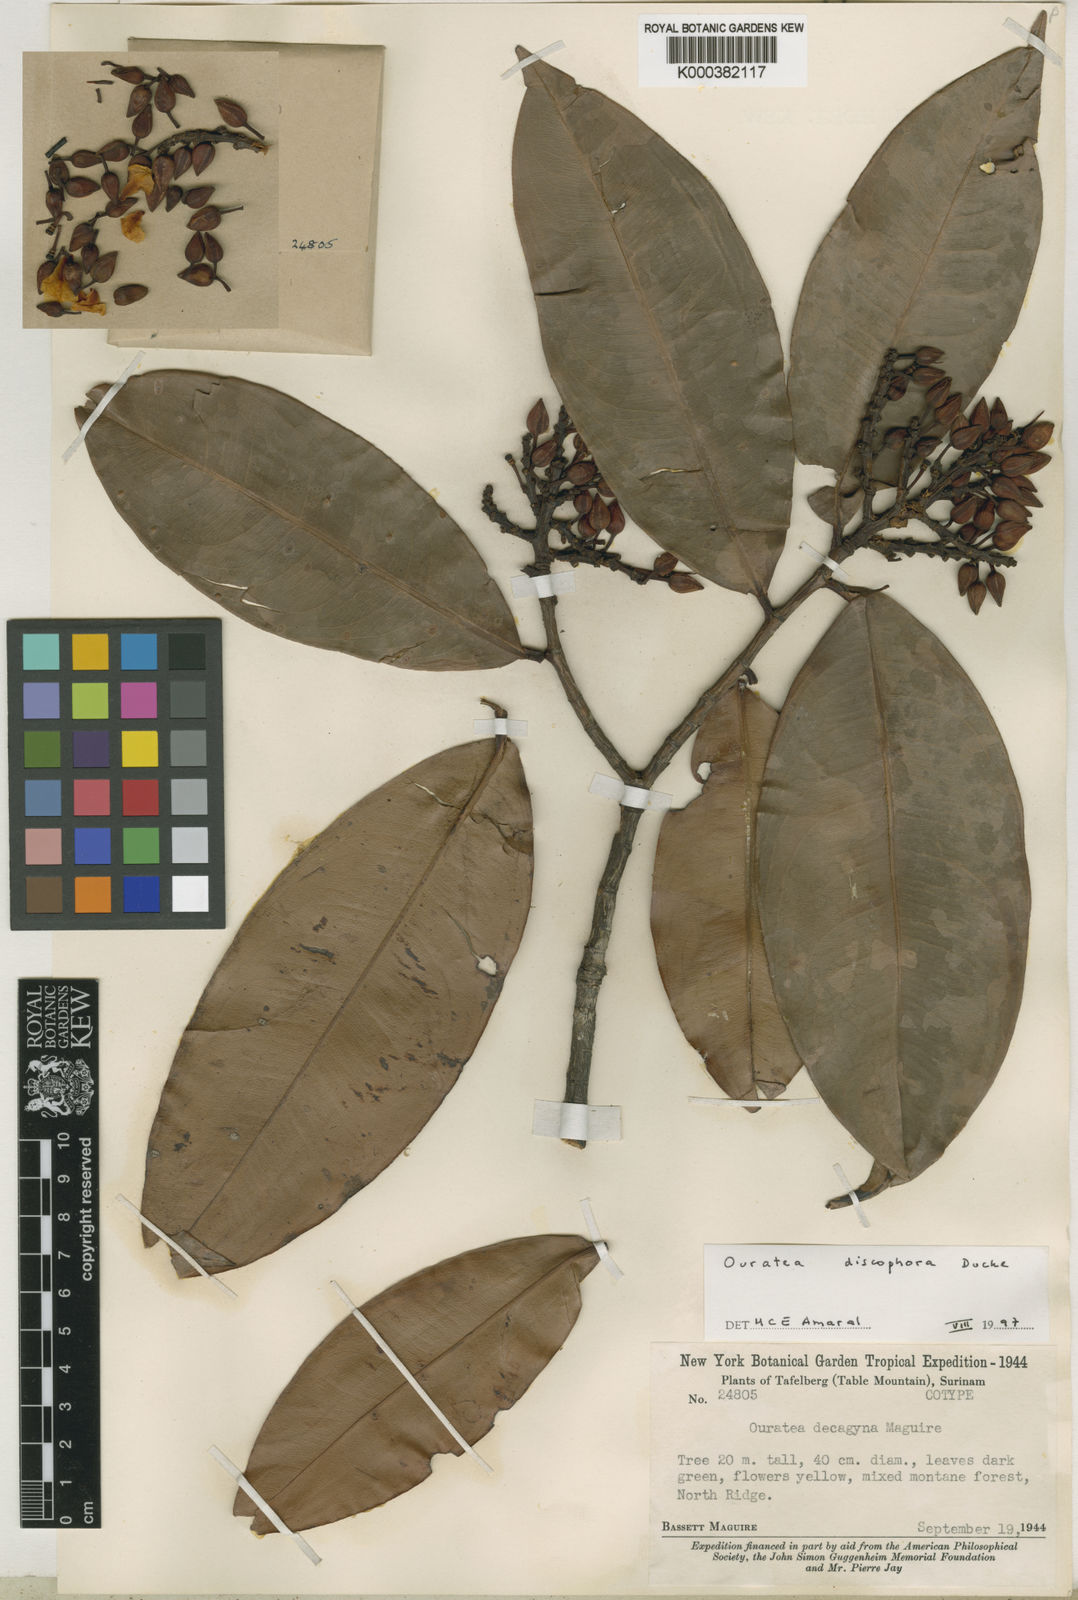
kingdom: Plantae
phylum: Tracheophyta
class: Magnoliopsida
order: Malpighiales
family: Ochnaceae
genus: Ouratea
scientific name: Ouratea discophora
